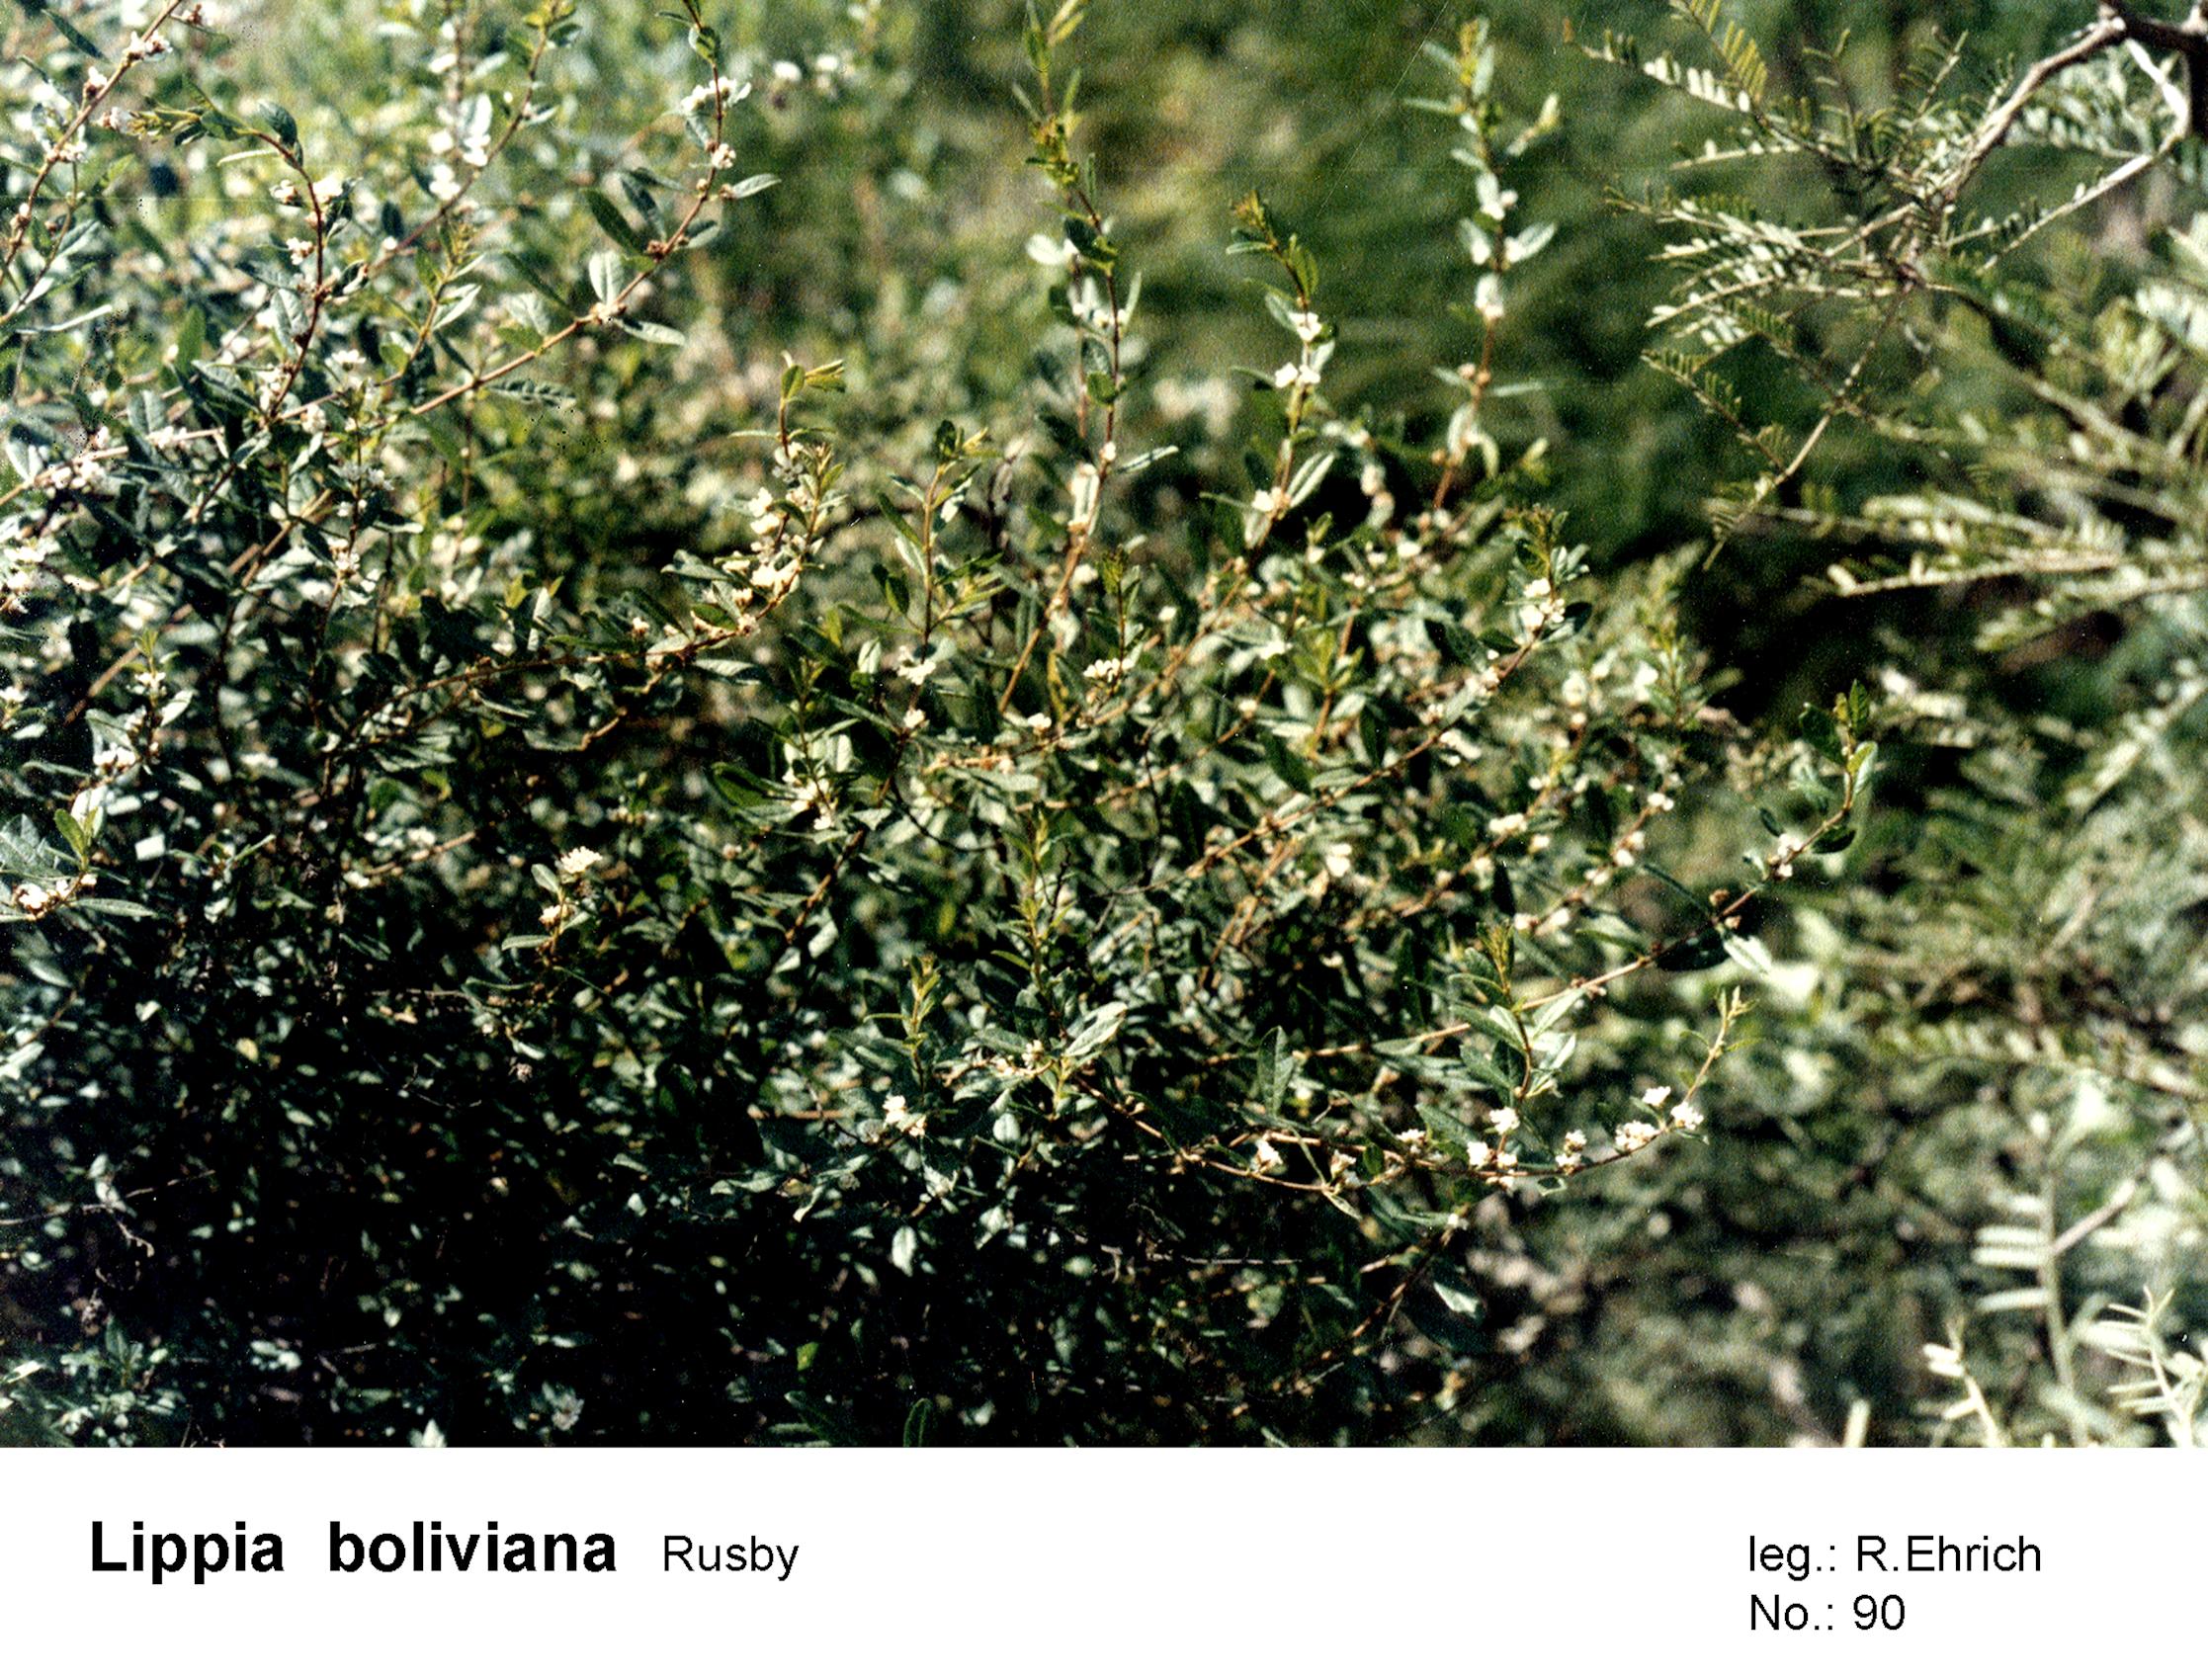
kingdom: Plantae
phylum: Tracheophyta
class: Magnoliopsida
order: Lamiales
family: Verbenaceae
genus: Lippia
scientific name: Lippia integrifolia
